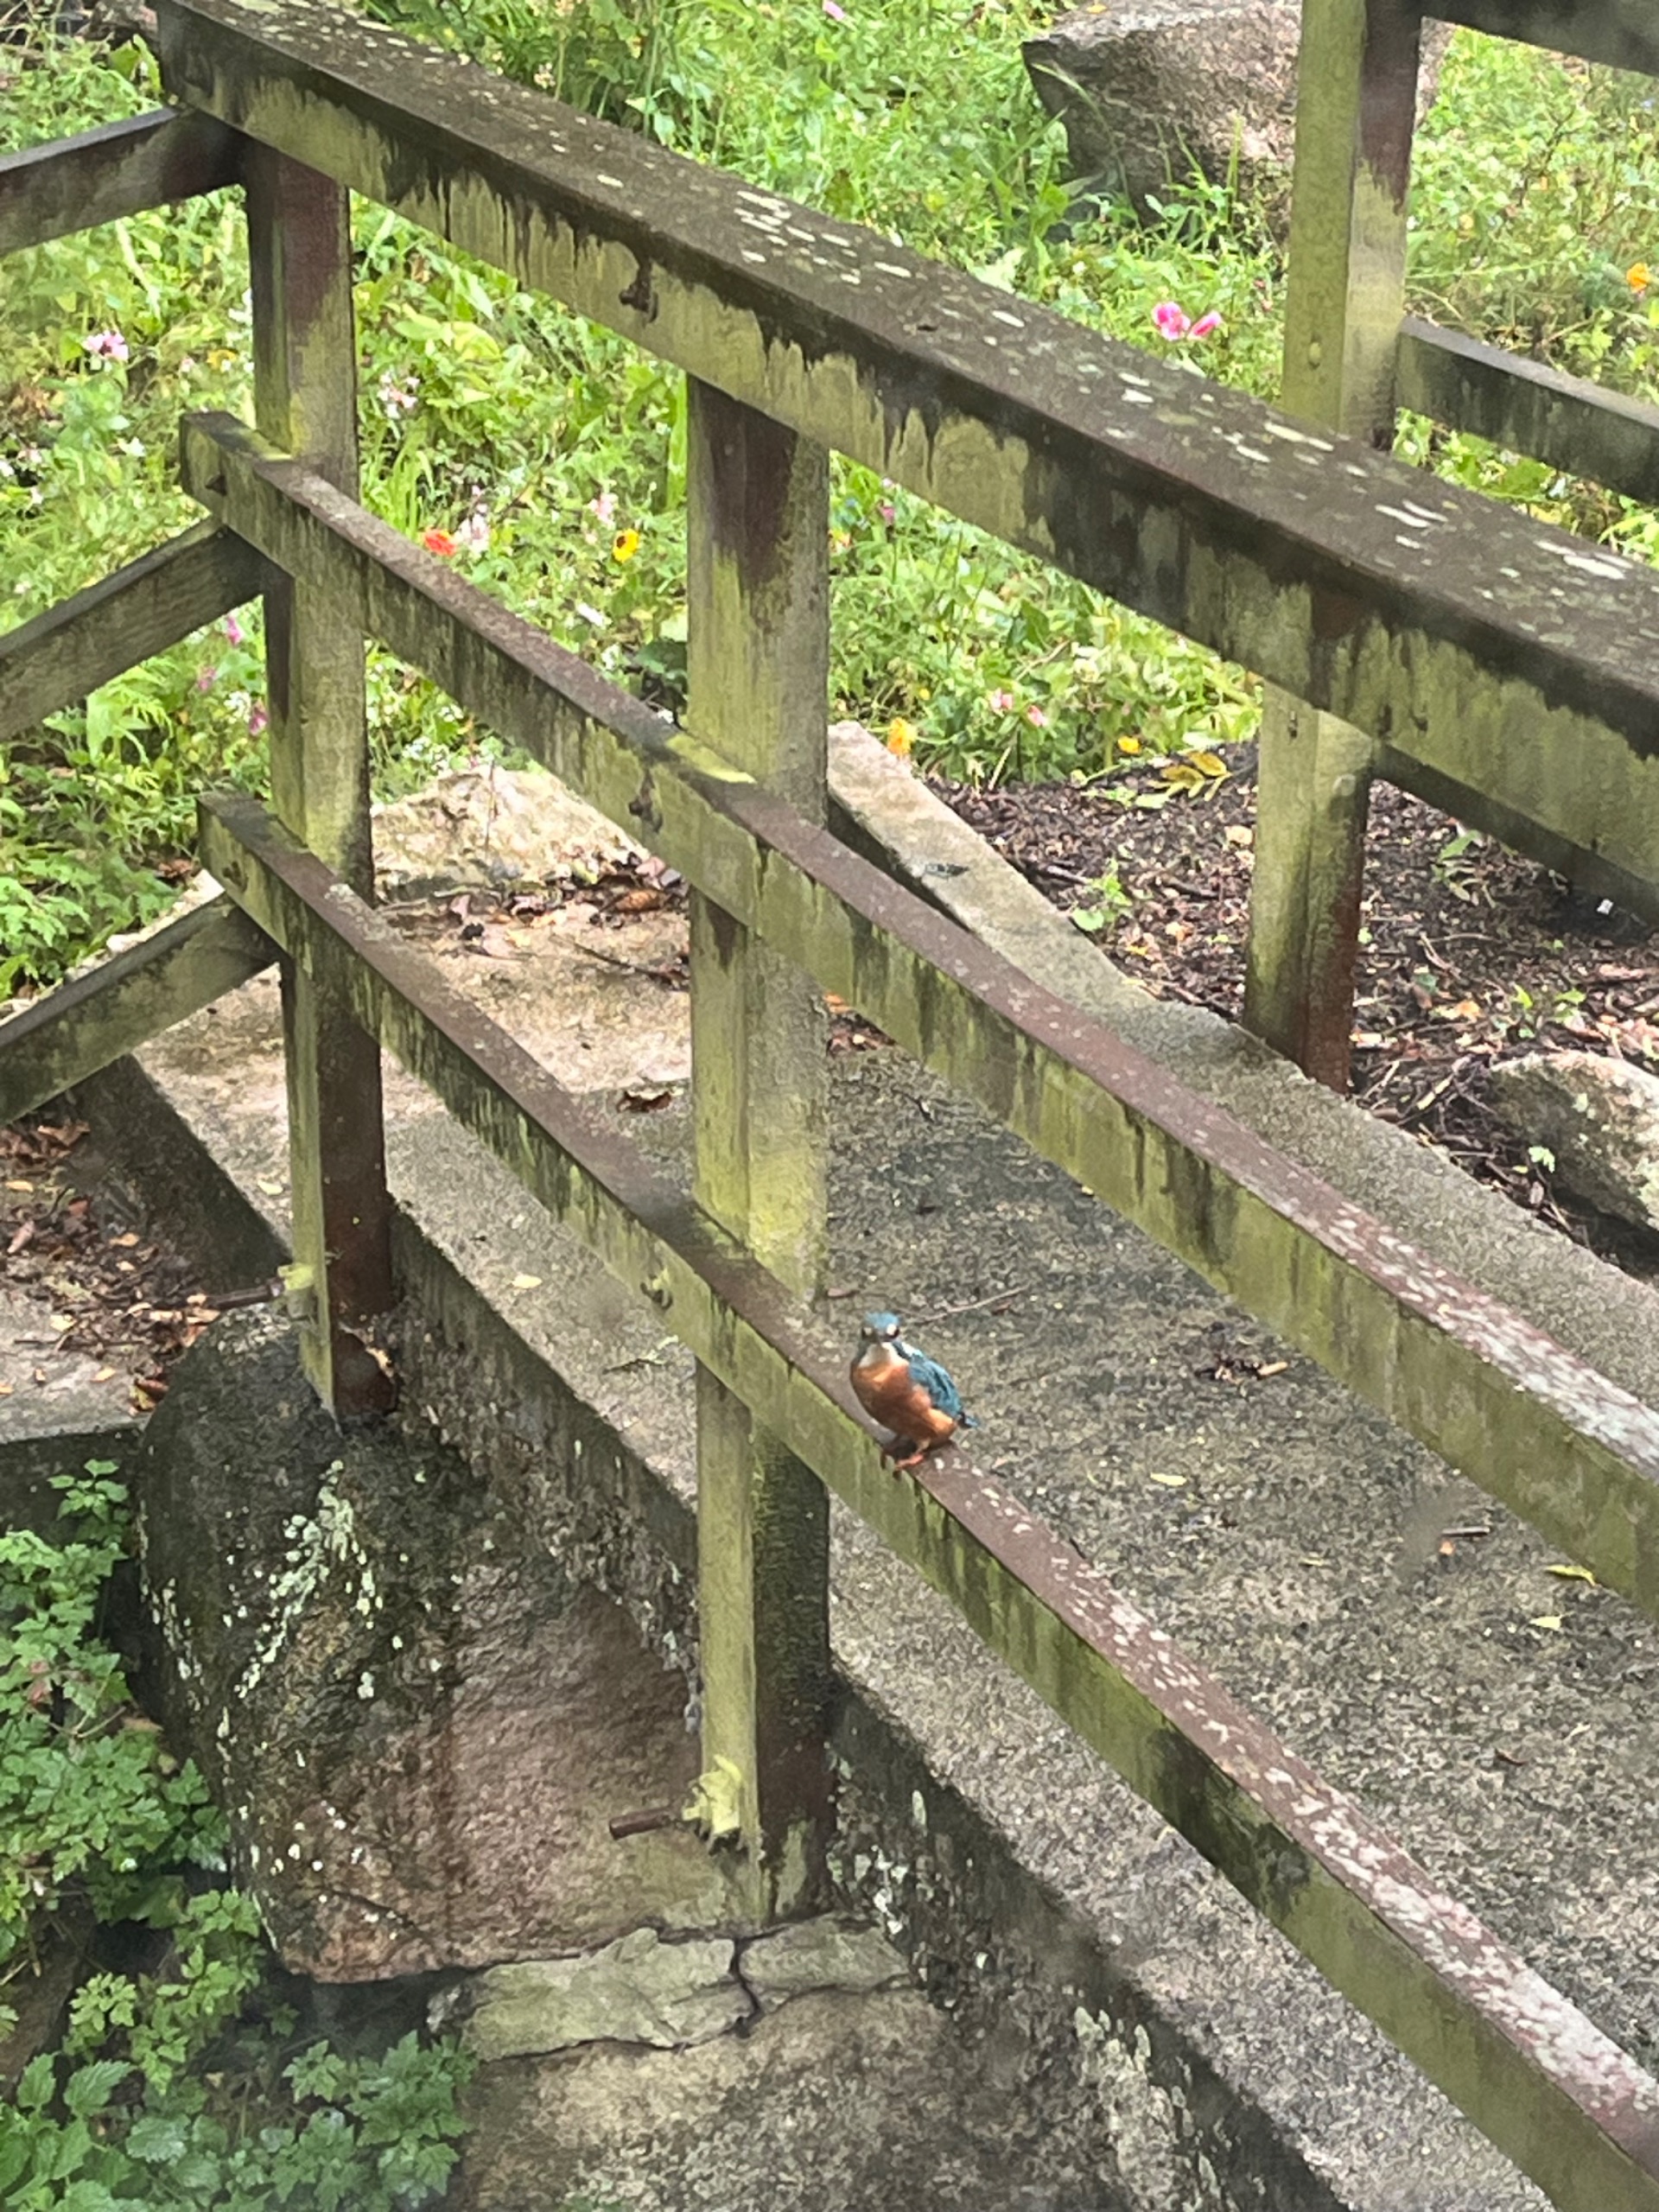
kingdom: Animalia
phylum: Chordata
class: Aves
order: Coraciiformes
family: Alcedinidae
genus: Alcedo
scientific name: Alcedo atthis
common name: Isfugl
